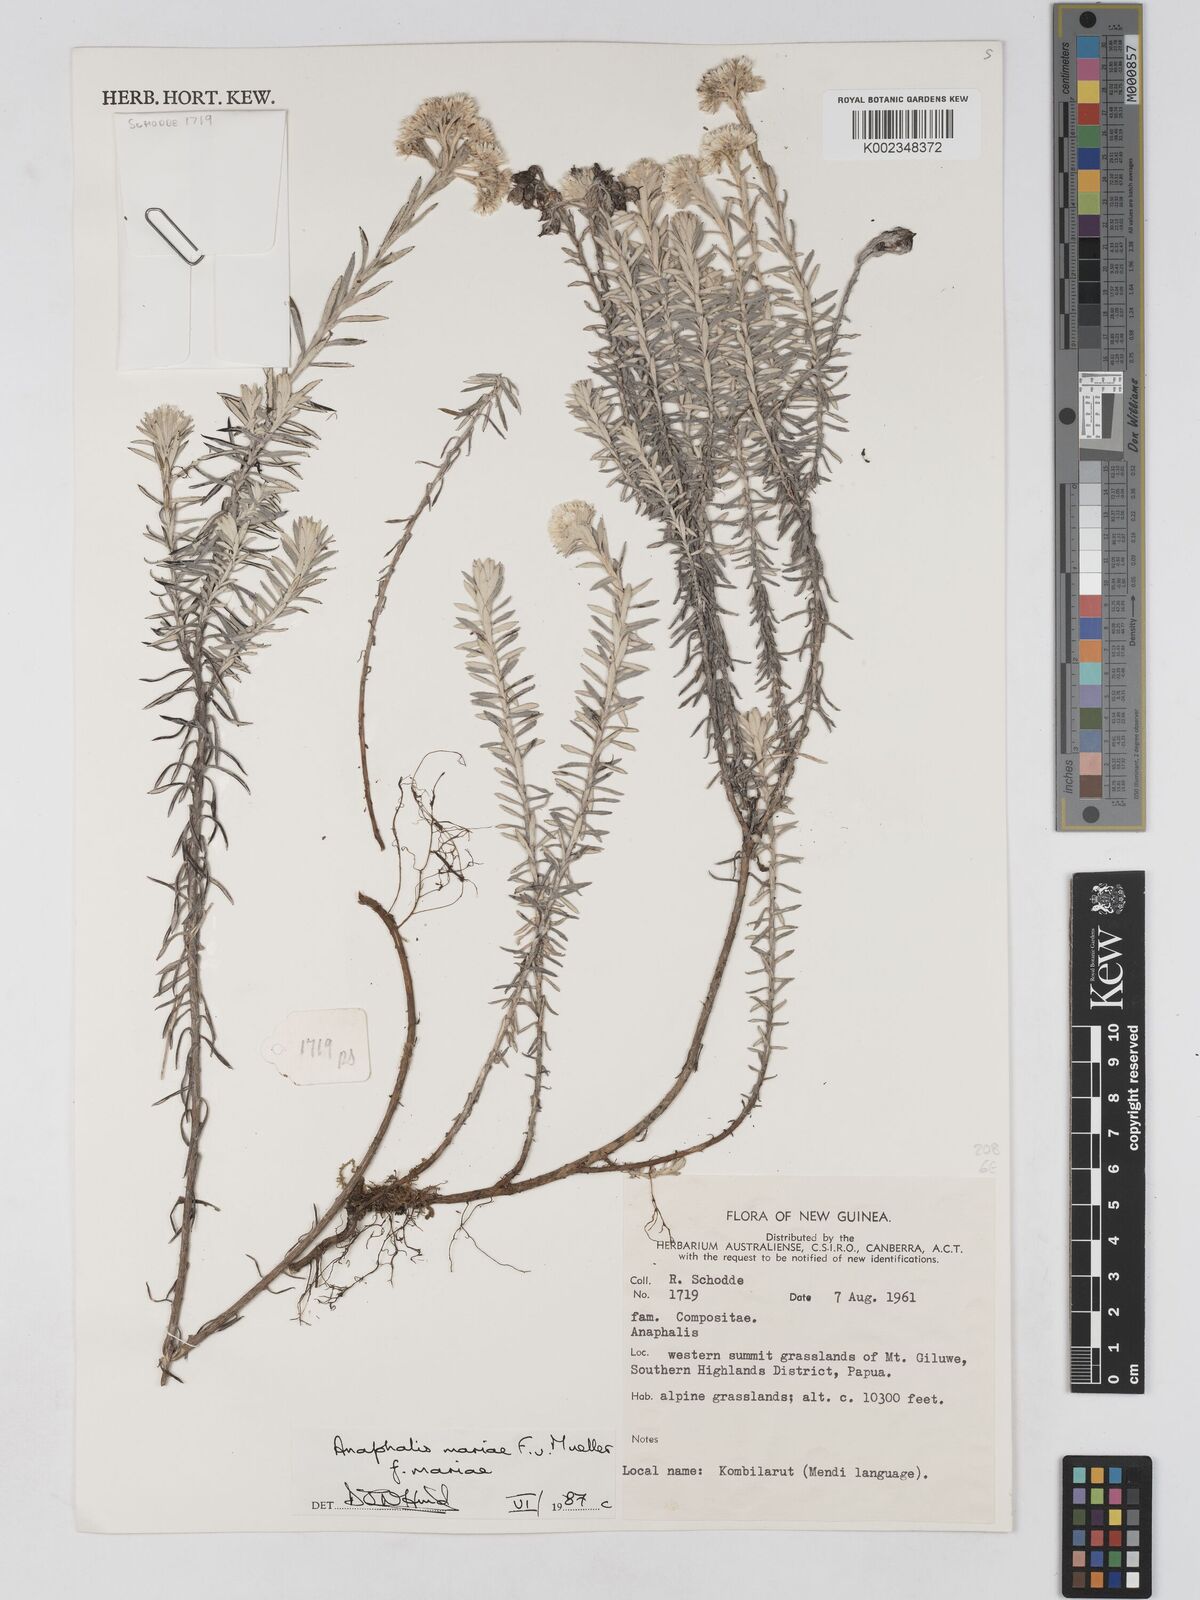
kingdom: Plantae
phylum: Tracheophyta
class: Magnoliopsida
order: Asterales
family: Asteraceae
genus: Anaphalioides
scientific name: Anaphalioides mariae
